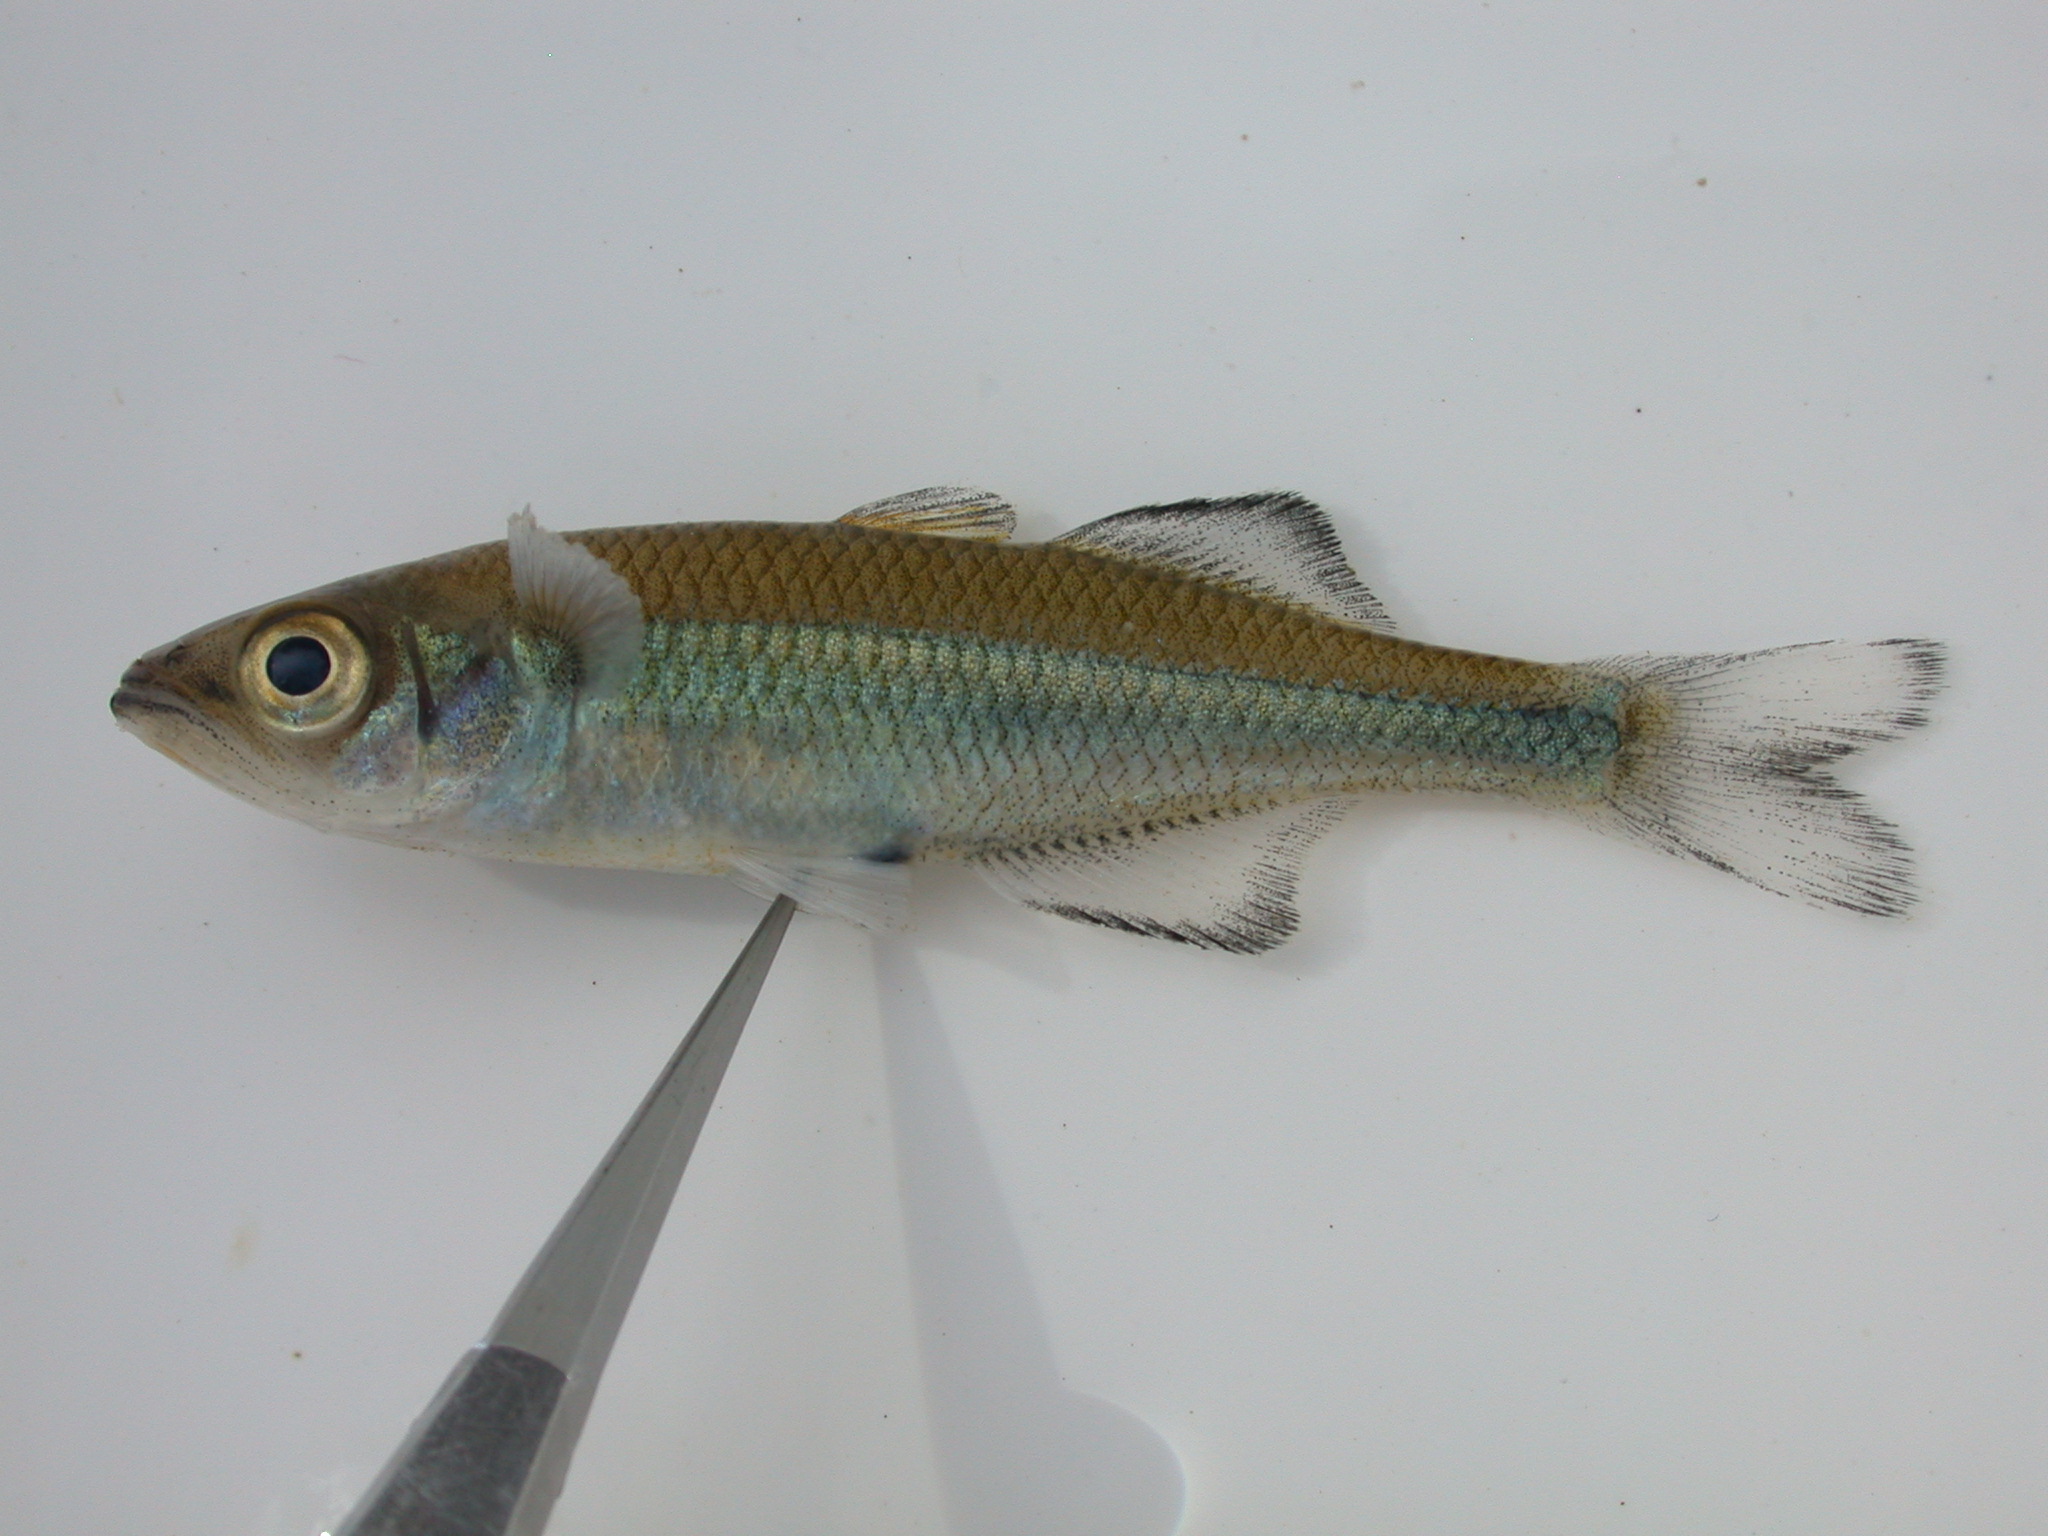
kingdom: Animalia
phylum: Chordata
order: Atheriniformes
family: Bedotiidae
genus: Rheocles
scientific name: Rheocles
